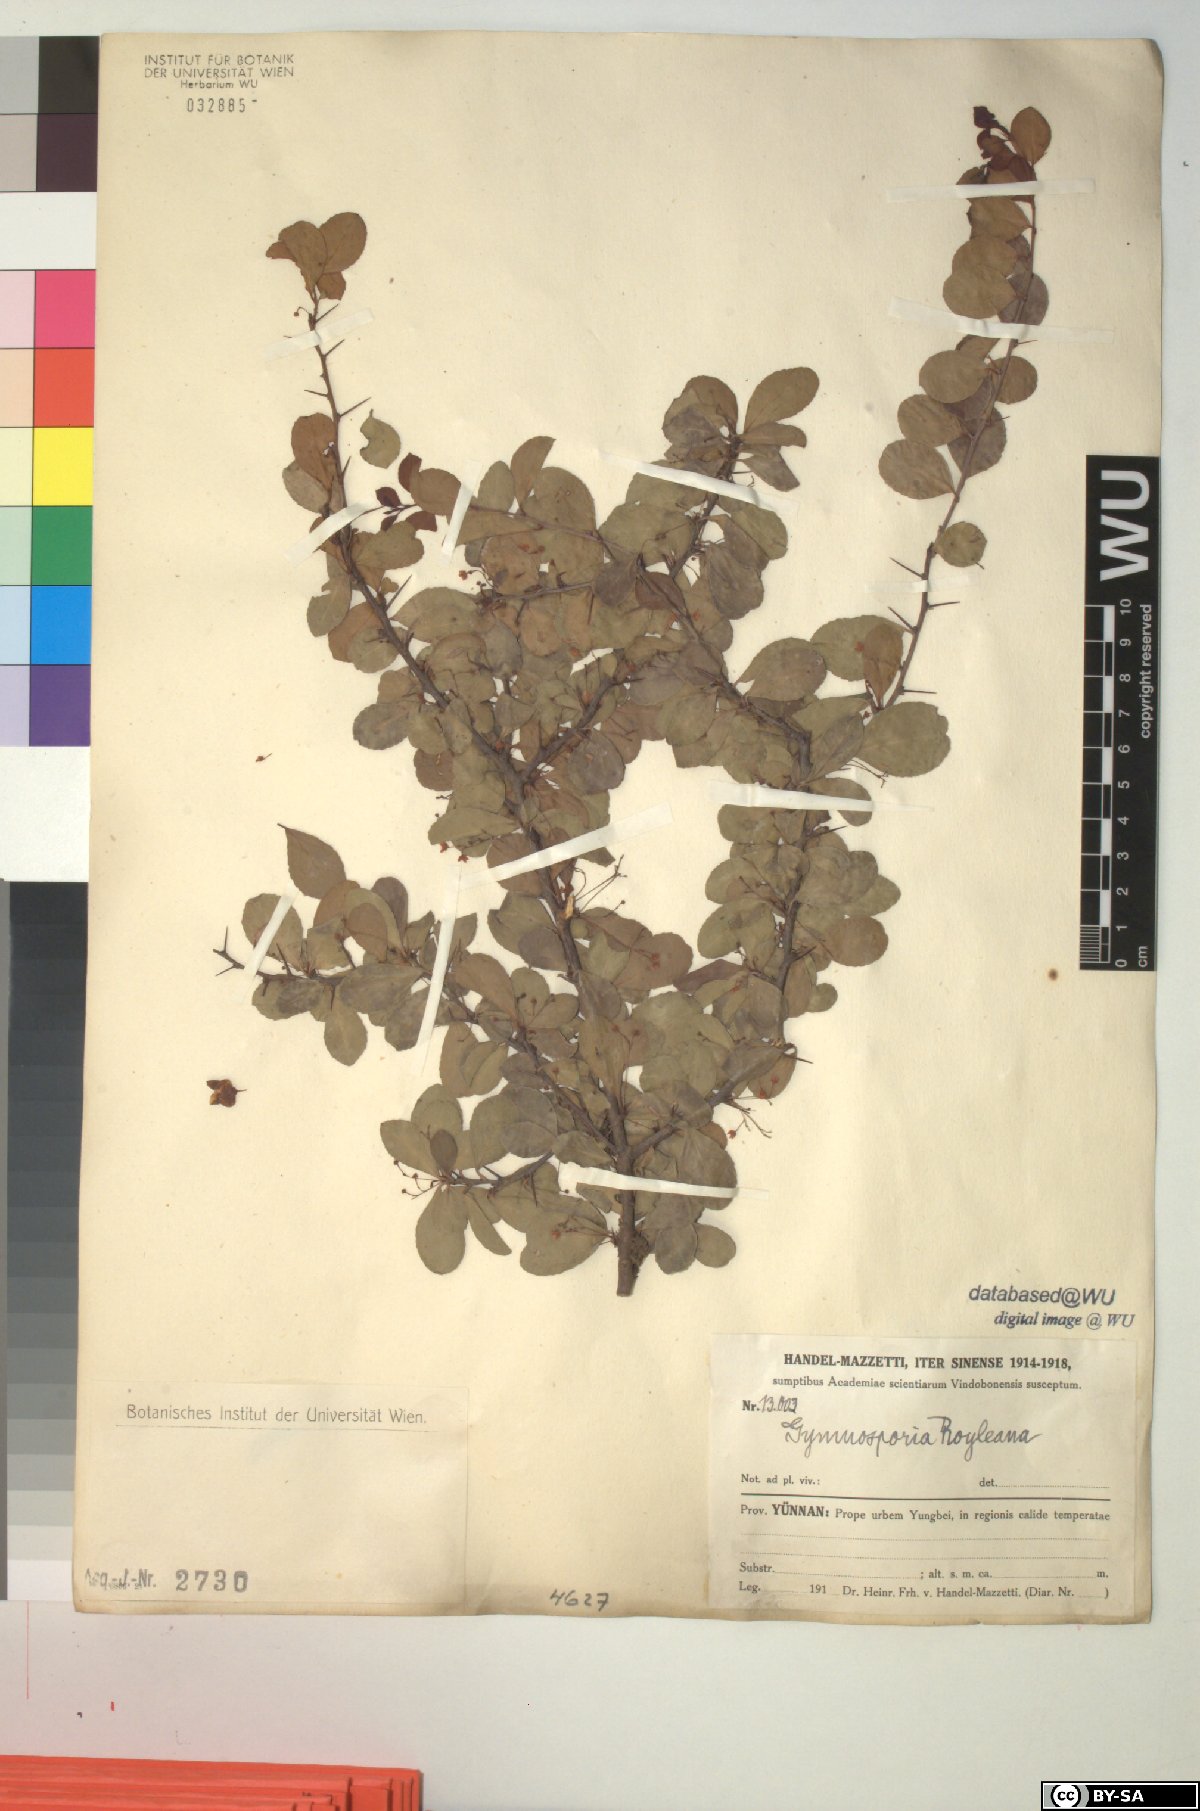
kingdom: Plantae
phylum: Tracheophyta
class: Magnoliopsida
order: Celastrales
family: Celastraceae
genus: Gymnosporia
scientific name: Gymnosporia royleana
